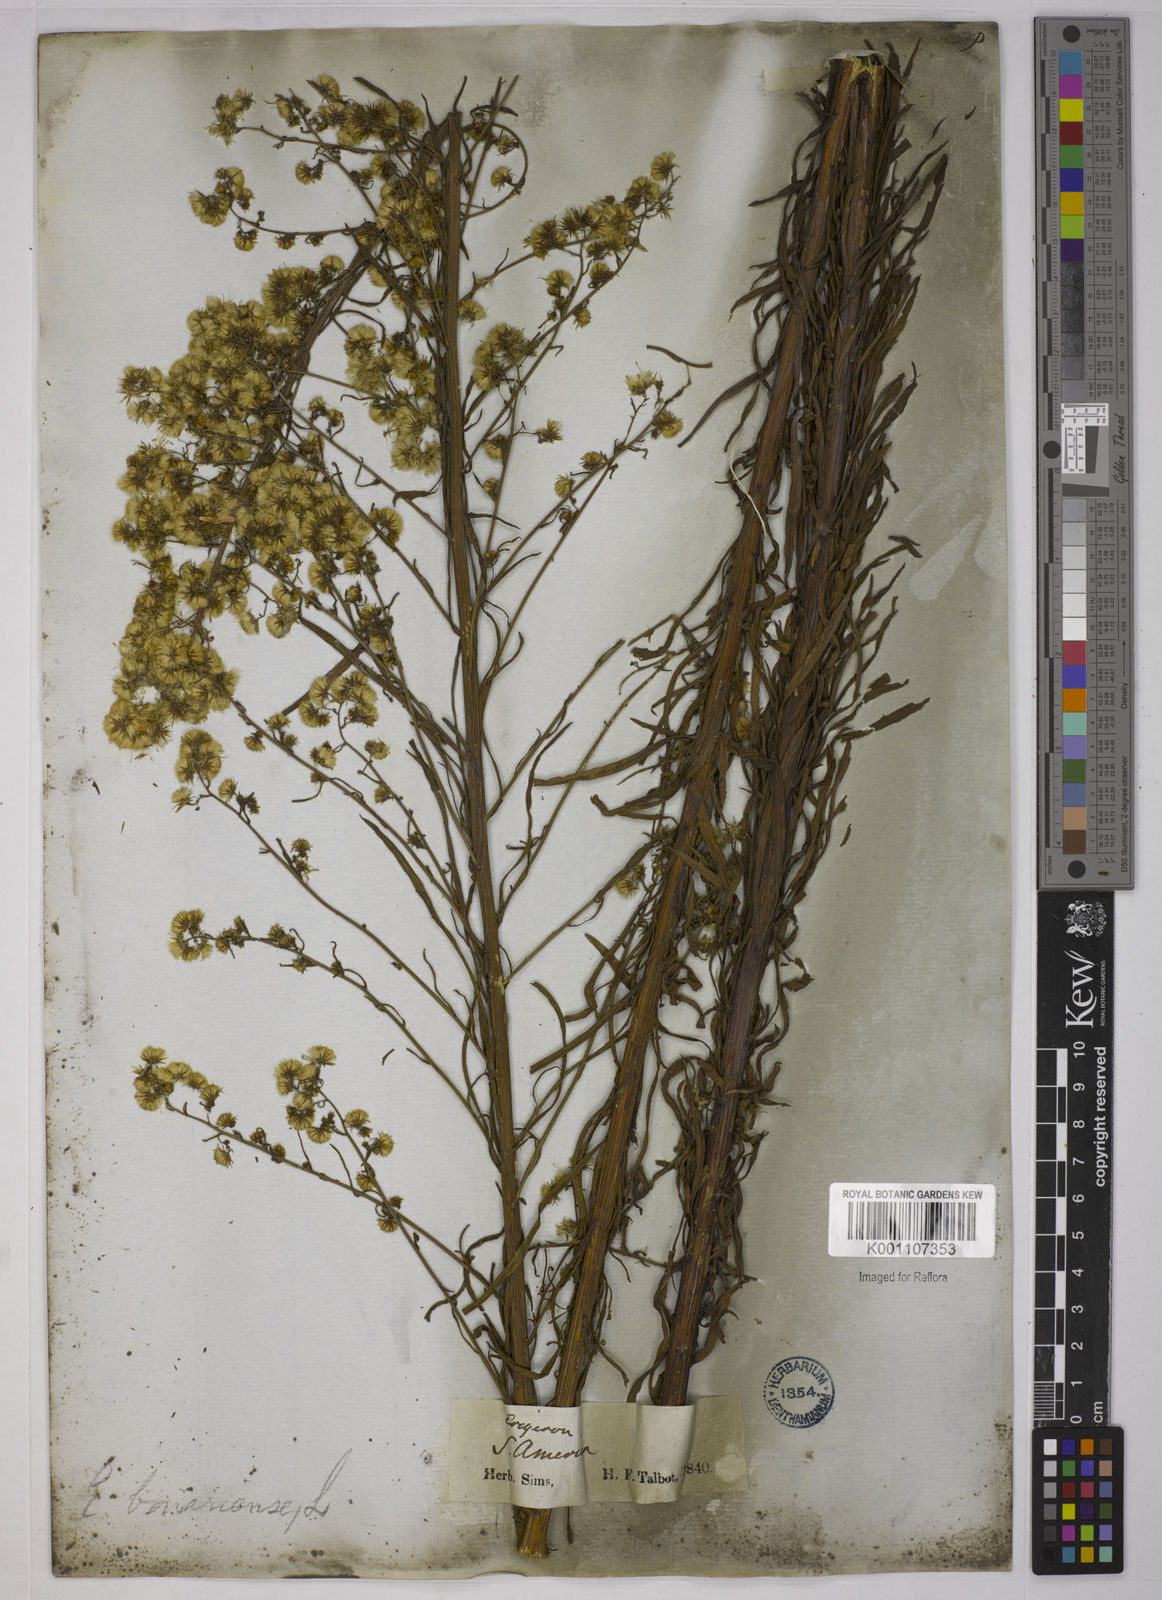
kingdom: Plantae
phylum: Tracheophyta
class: Magnoliopsida
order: Asterales
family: Asteraceae
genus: Erigeron
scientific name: Erigeron canadensis
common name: Canadian fleabane
